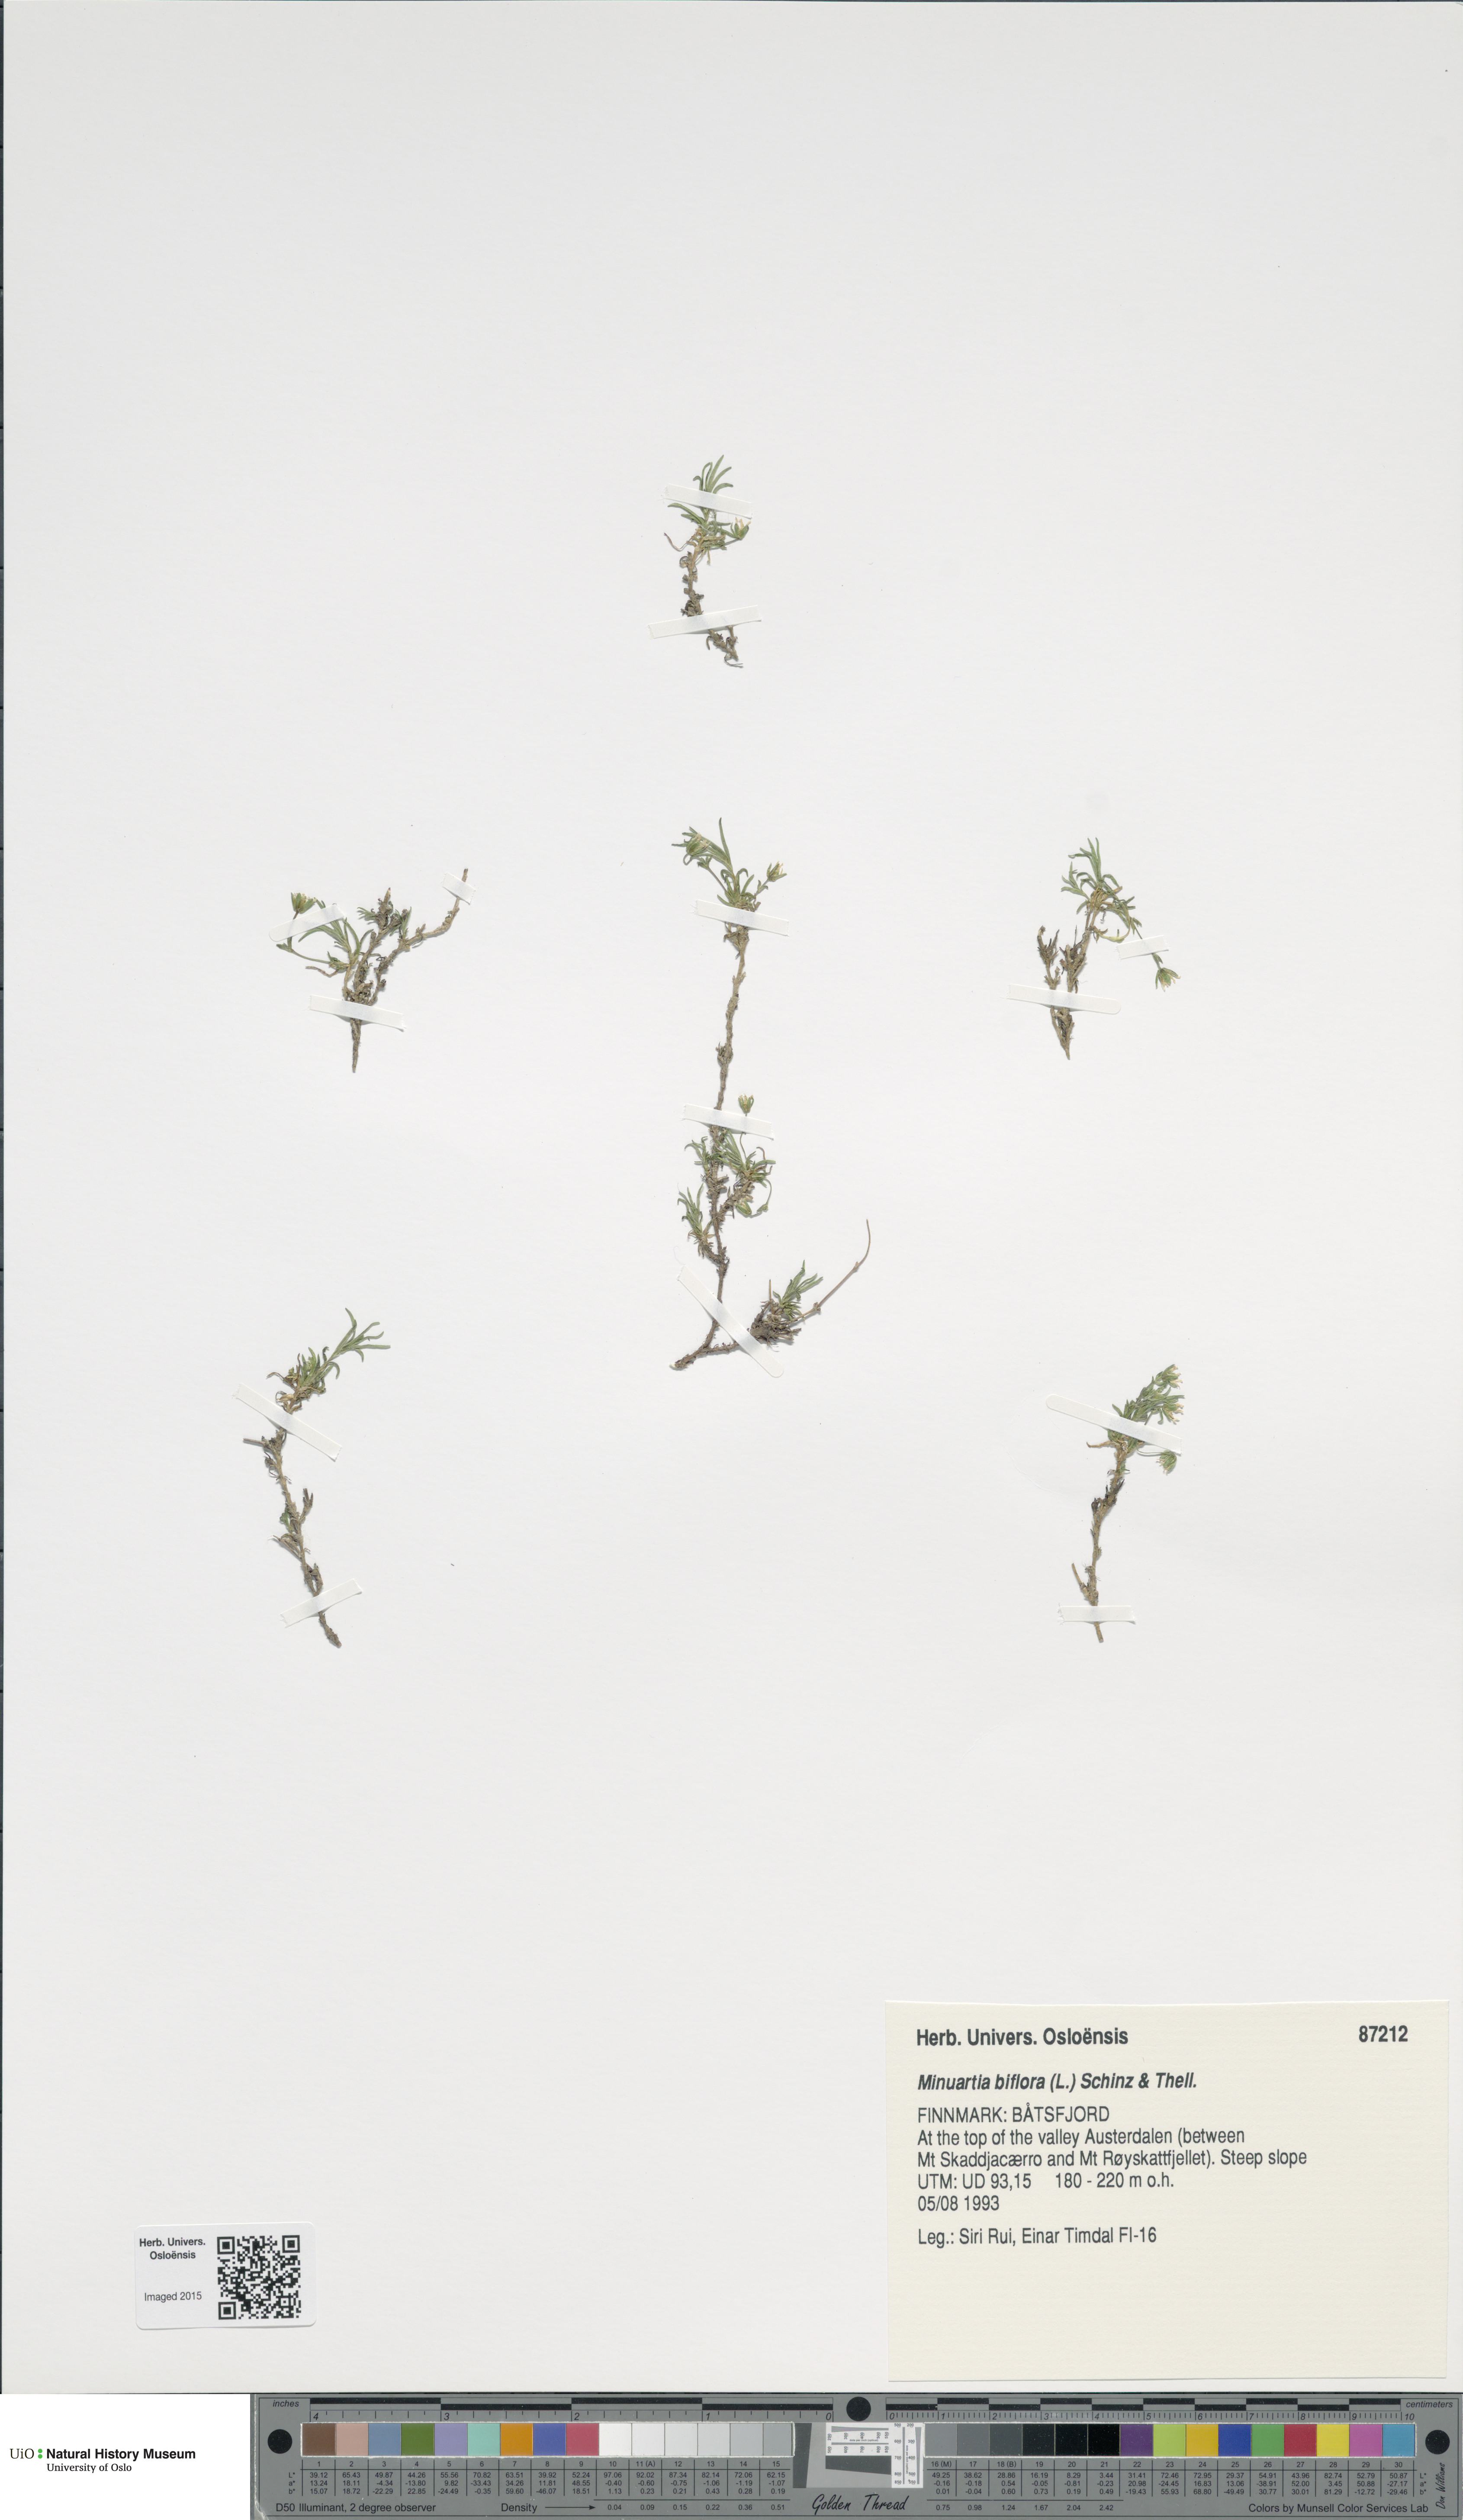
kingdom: Plantae
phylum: Tracheophyta
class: Magnoliopsida
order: Caryophyllales
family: Caryophyllaceae
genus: Cherleria
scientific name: Cherleria biflora
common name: Mountain sandwort
